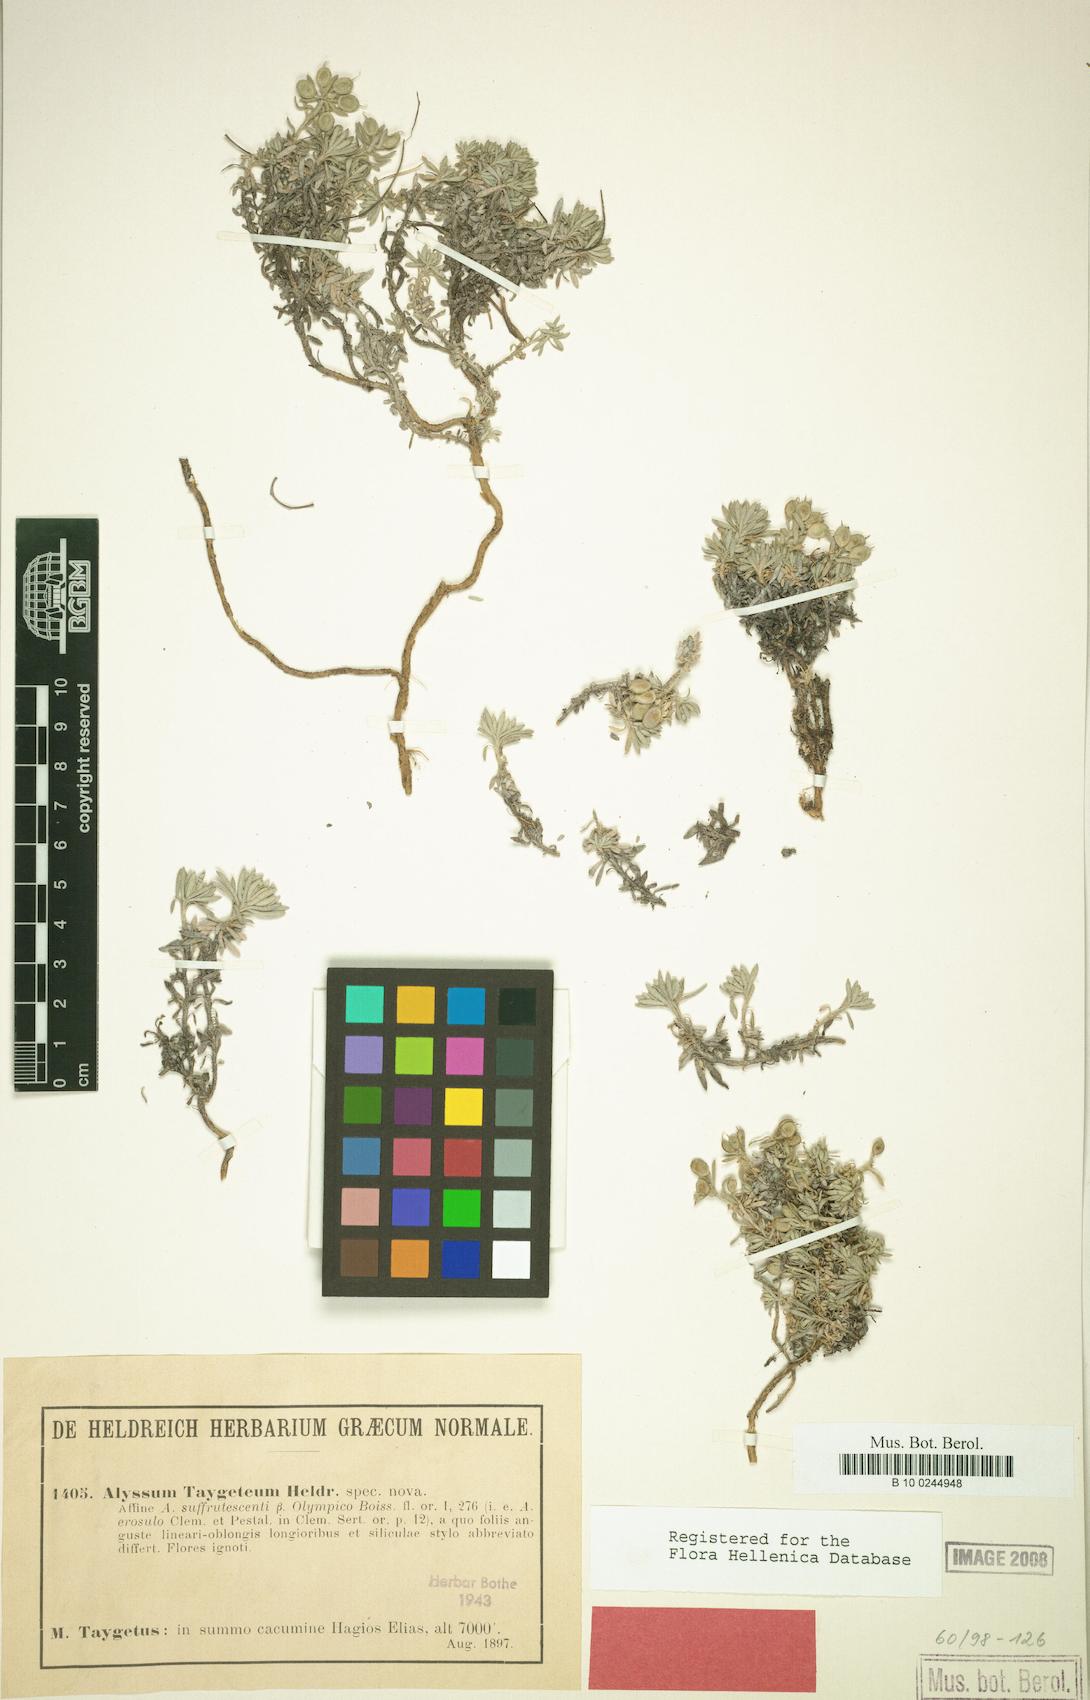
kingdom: Plantae
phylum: Tracheophyta
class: Magnoliopsida
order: Brassicales
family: Brassicaceae
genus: Alyssum
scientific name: Alyssum taygeteum
